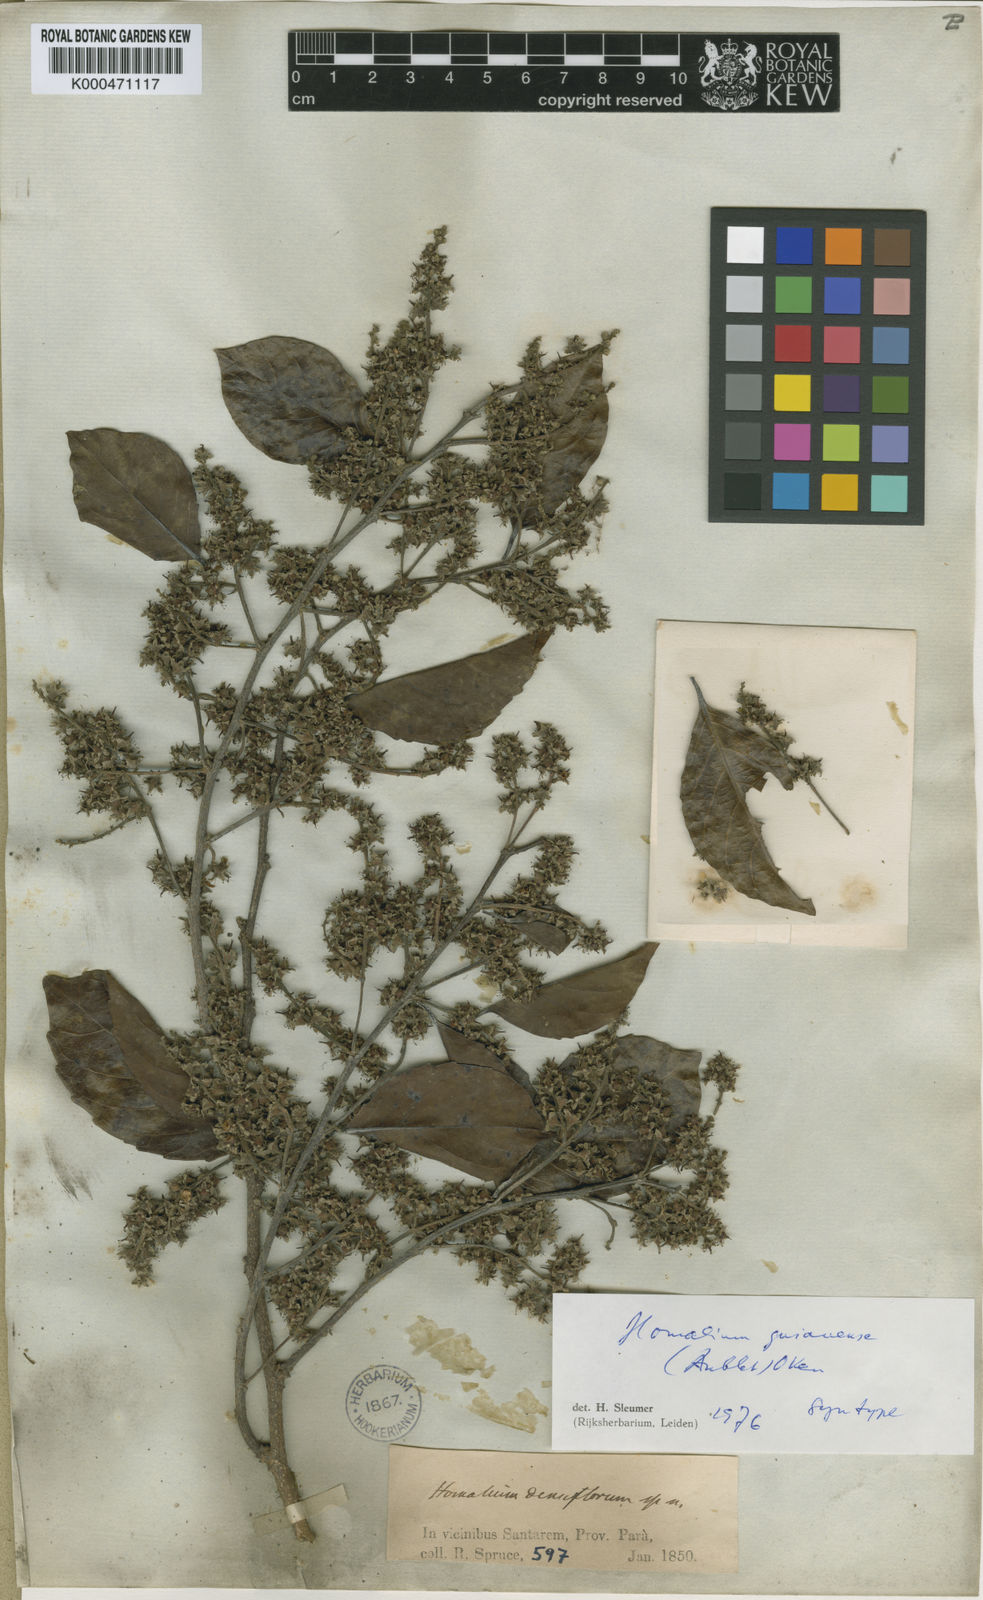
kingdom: Plantae
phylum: Tracheophyta
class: Magnoliopsida
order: Malpighiales
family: Salicaceae
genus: Homalium
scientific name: Homalium guianense
